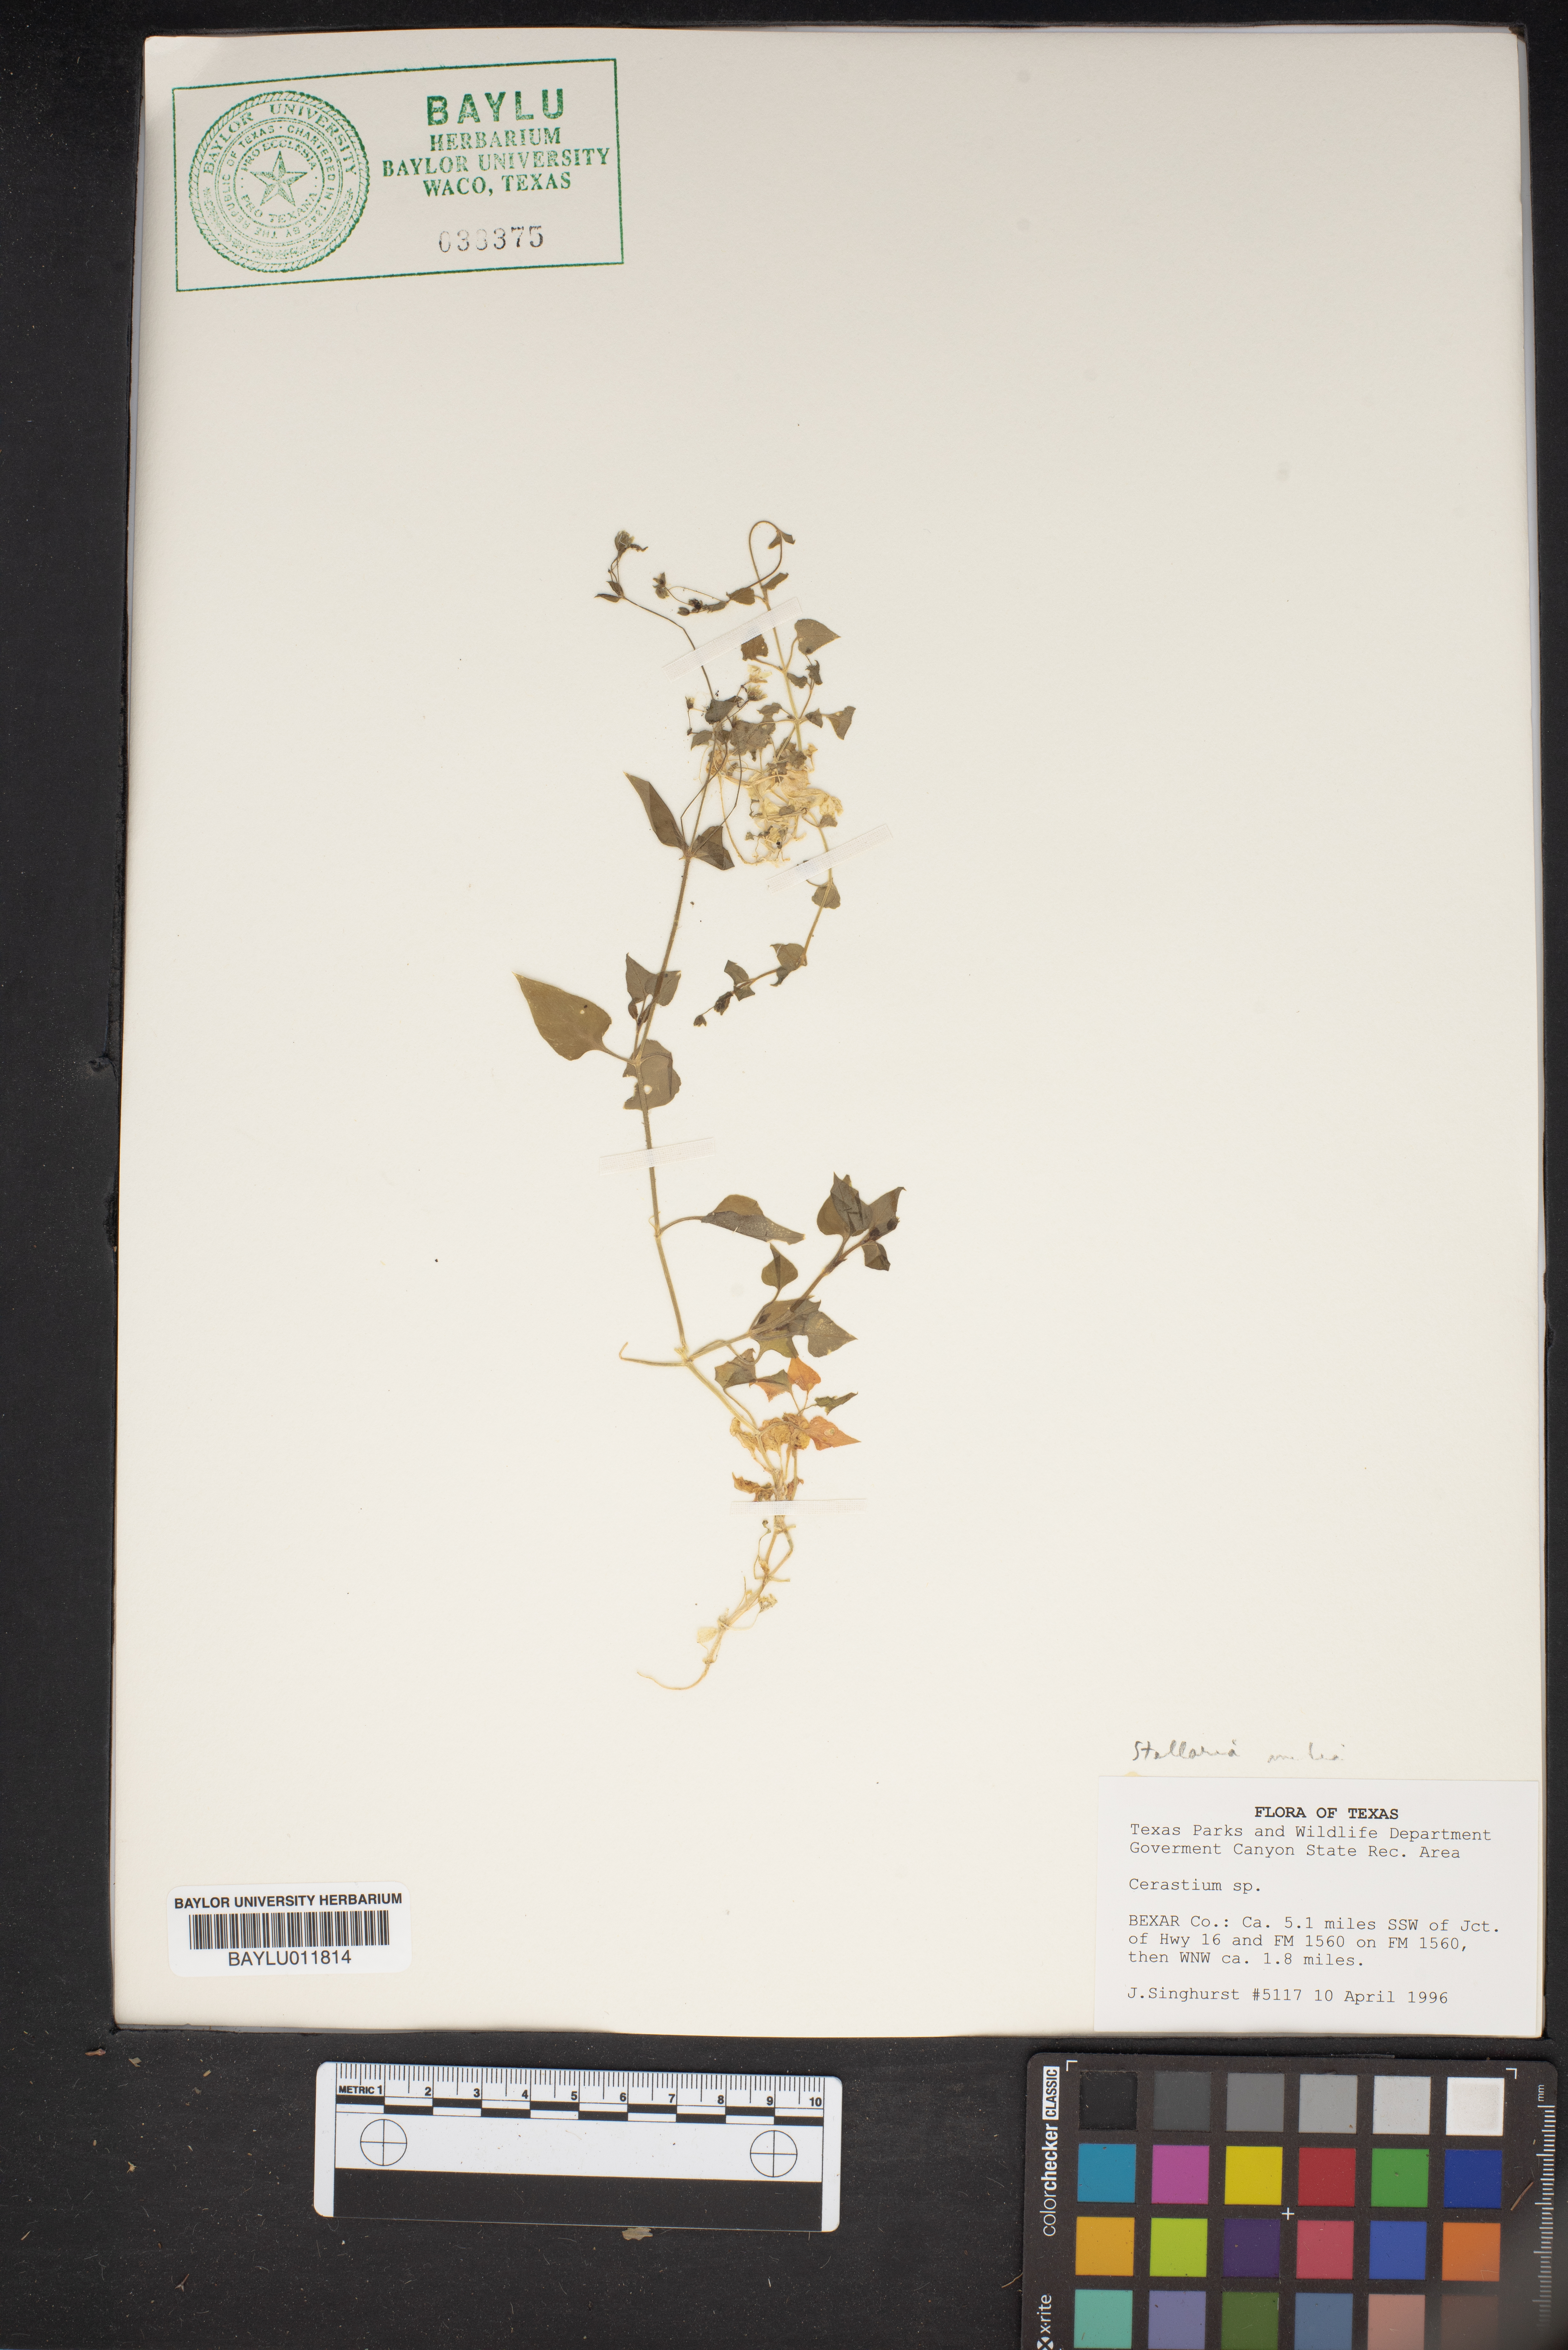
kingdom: Plantae
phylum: Tracheophyta
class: Magnoliopsida
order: Caryophyllales
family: Caryophyllaceae
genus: Cerastium
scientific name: Cerastium
